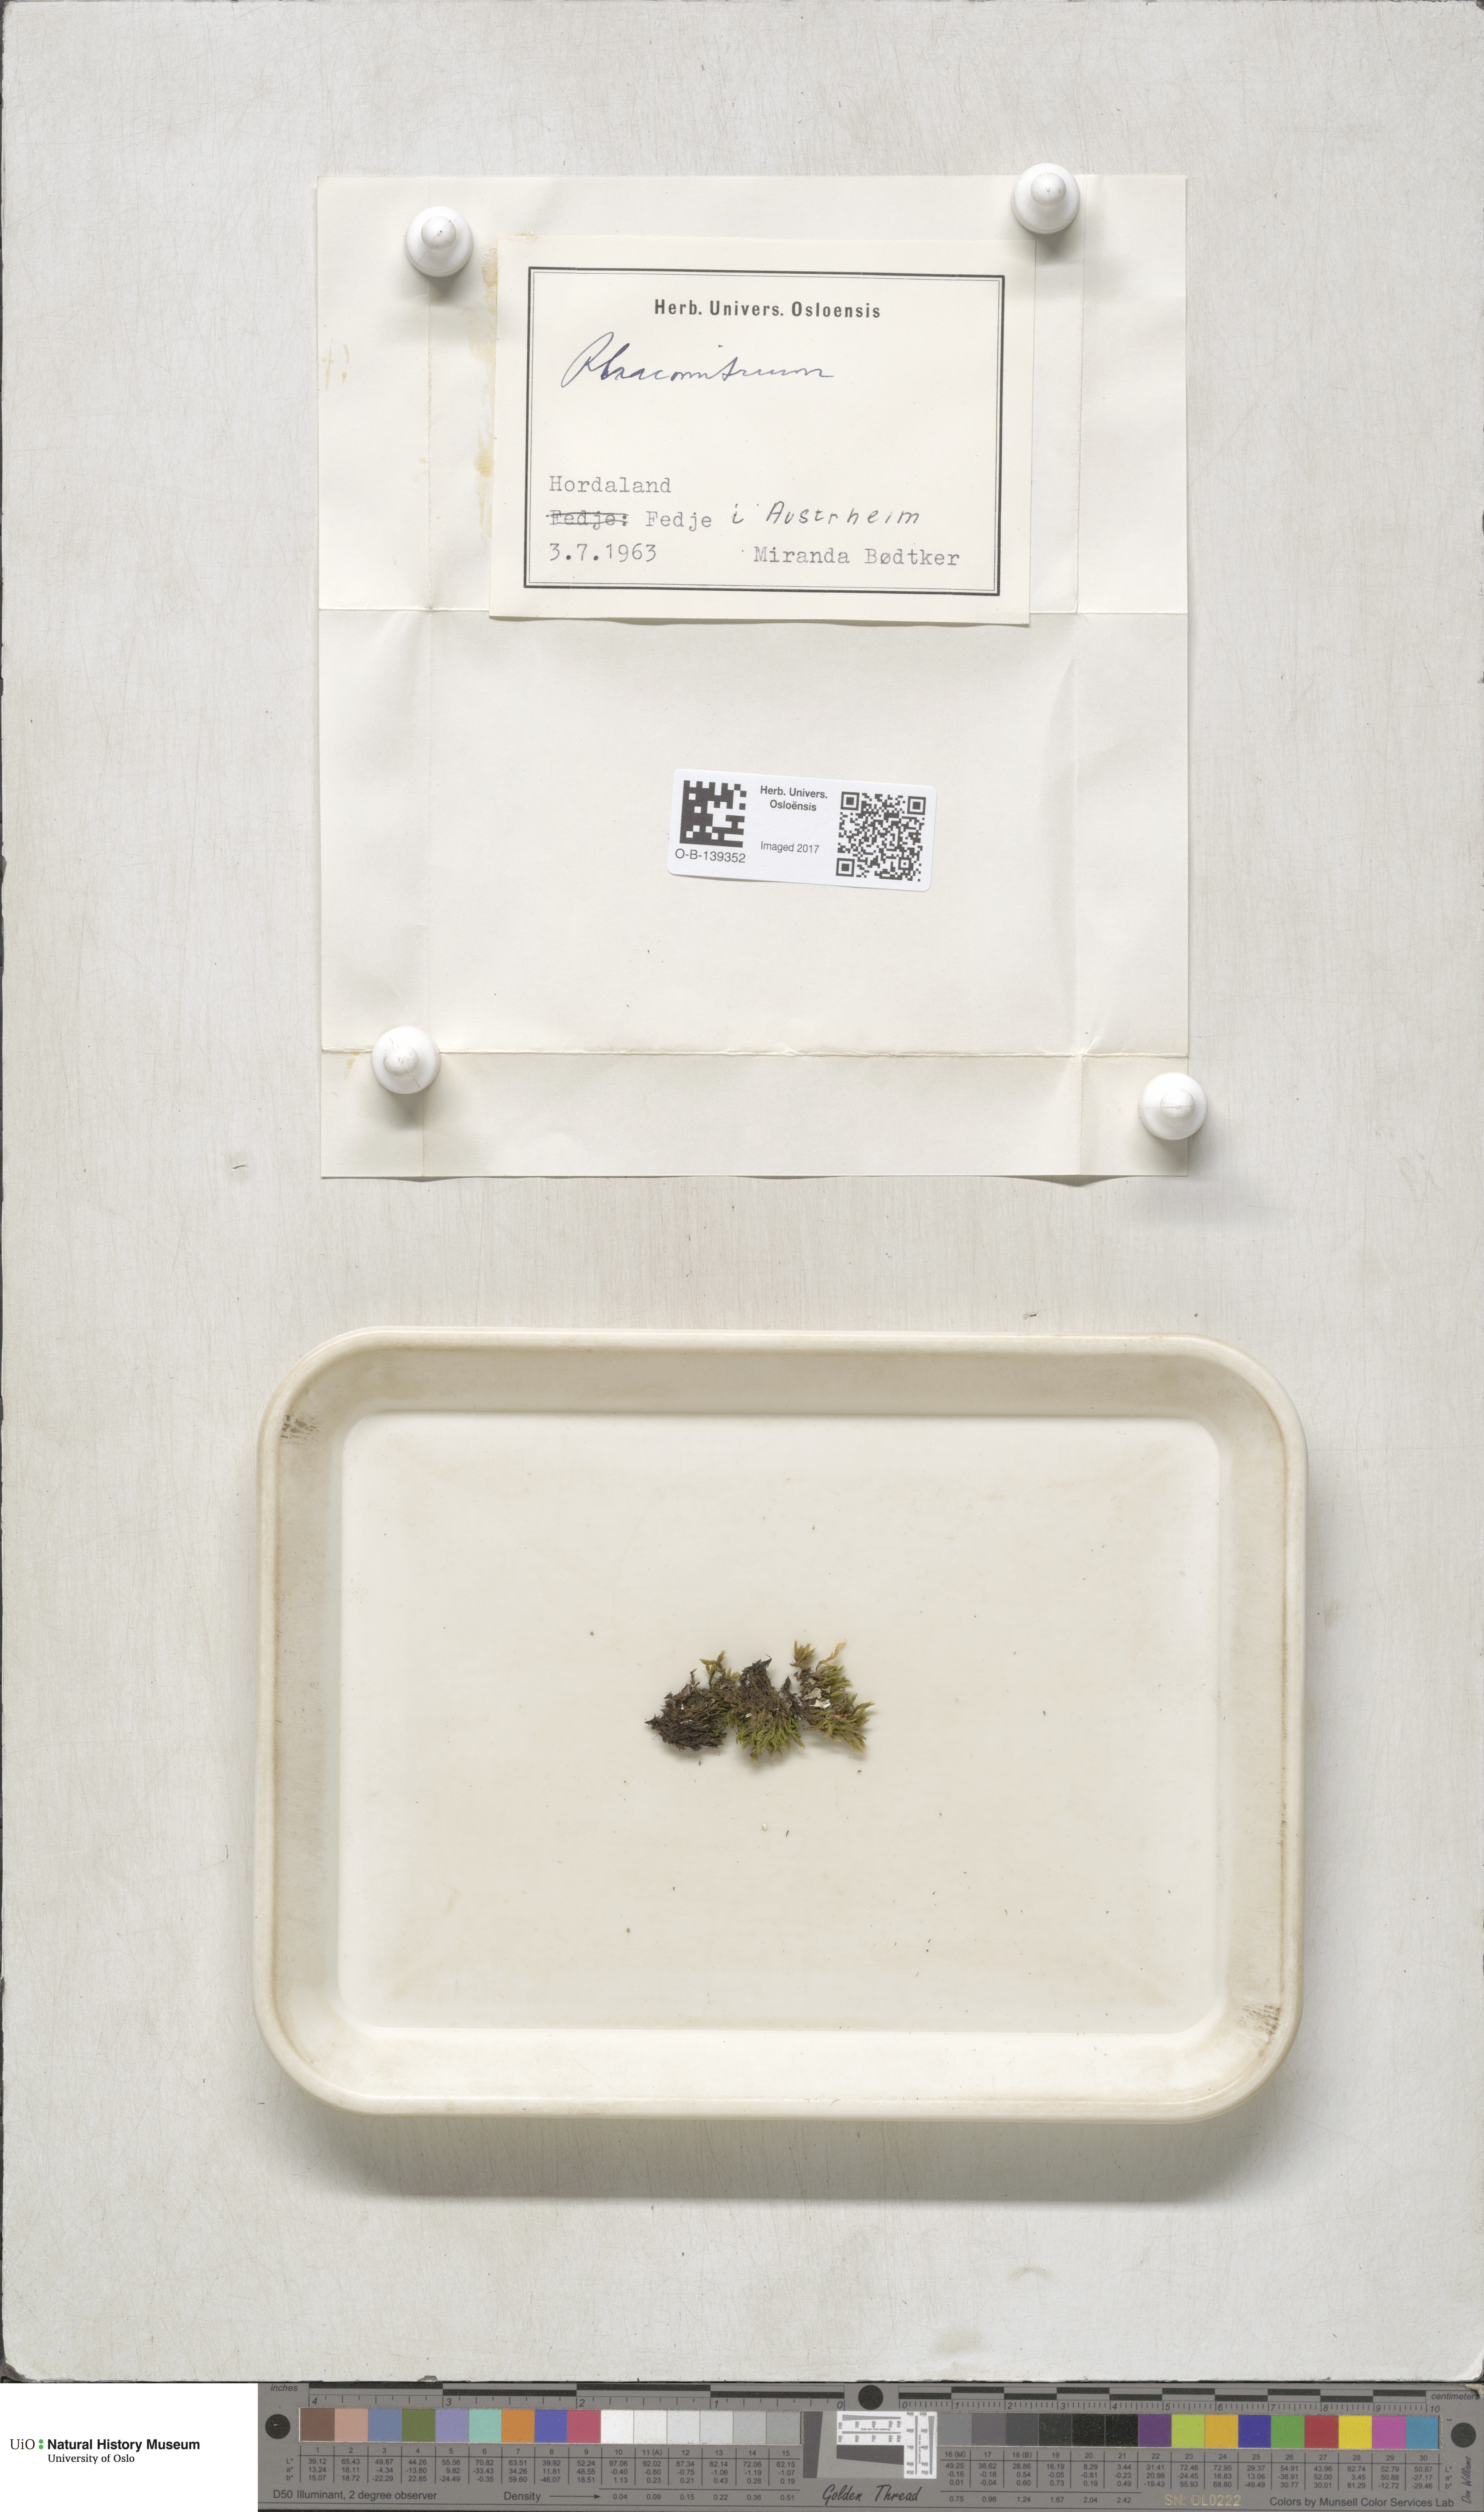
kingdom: Plantae
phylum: Bryophyta
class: Bryopsida
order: Grimmiales
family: Grimmiaceae
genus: Racomitrium
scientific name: Racomitrium
